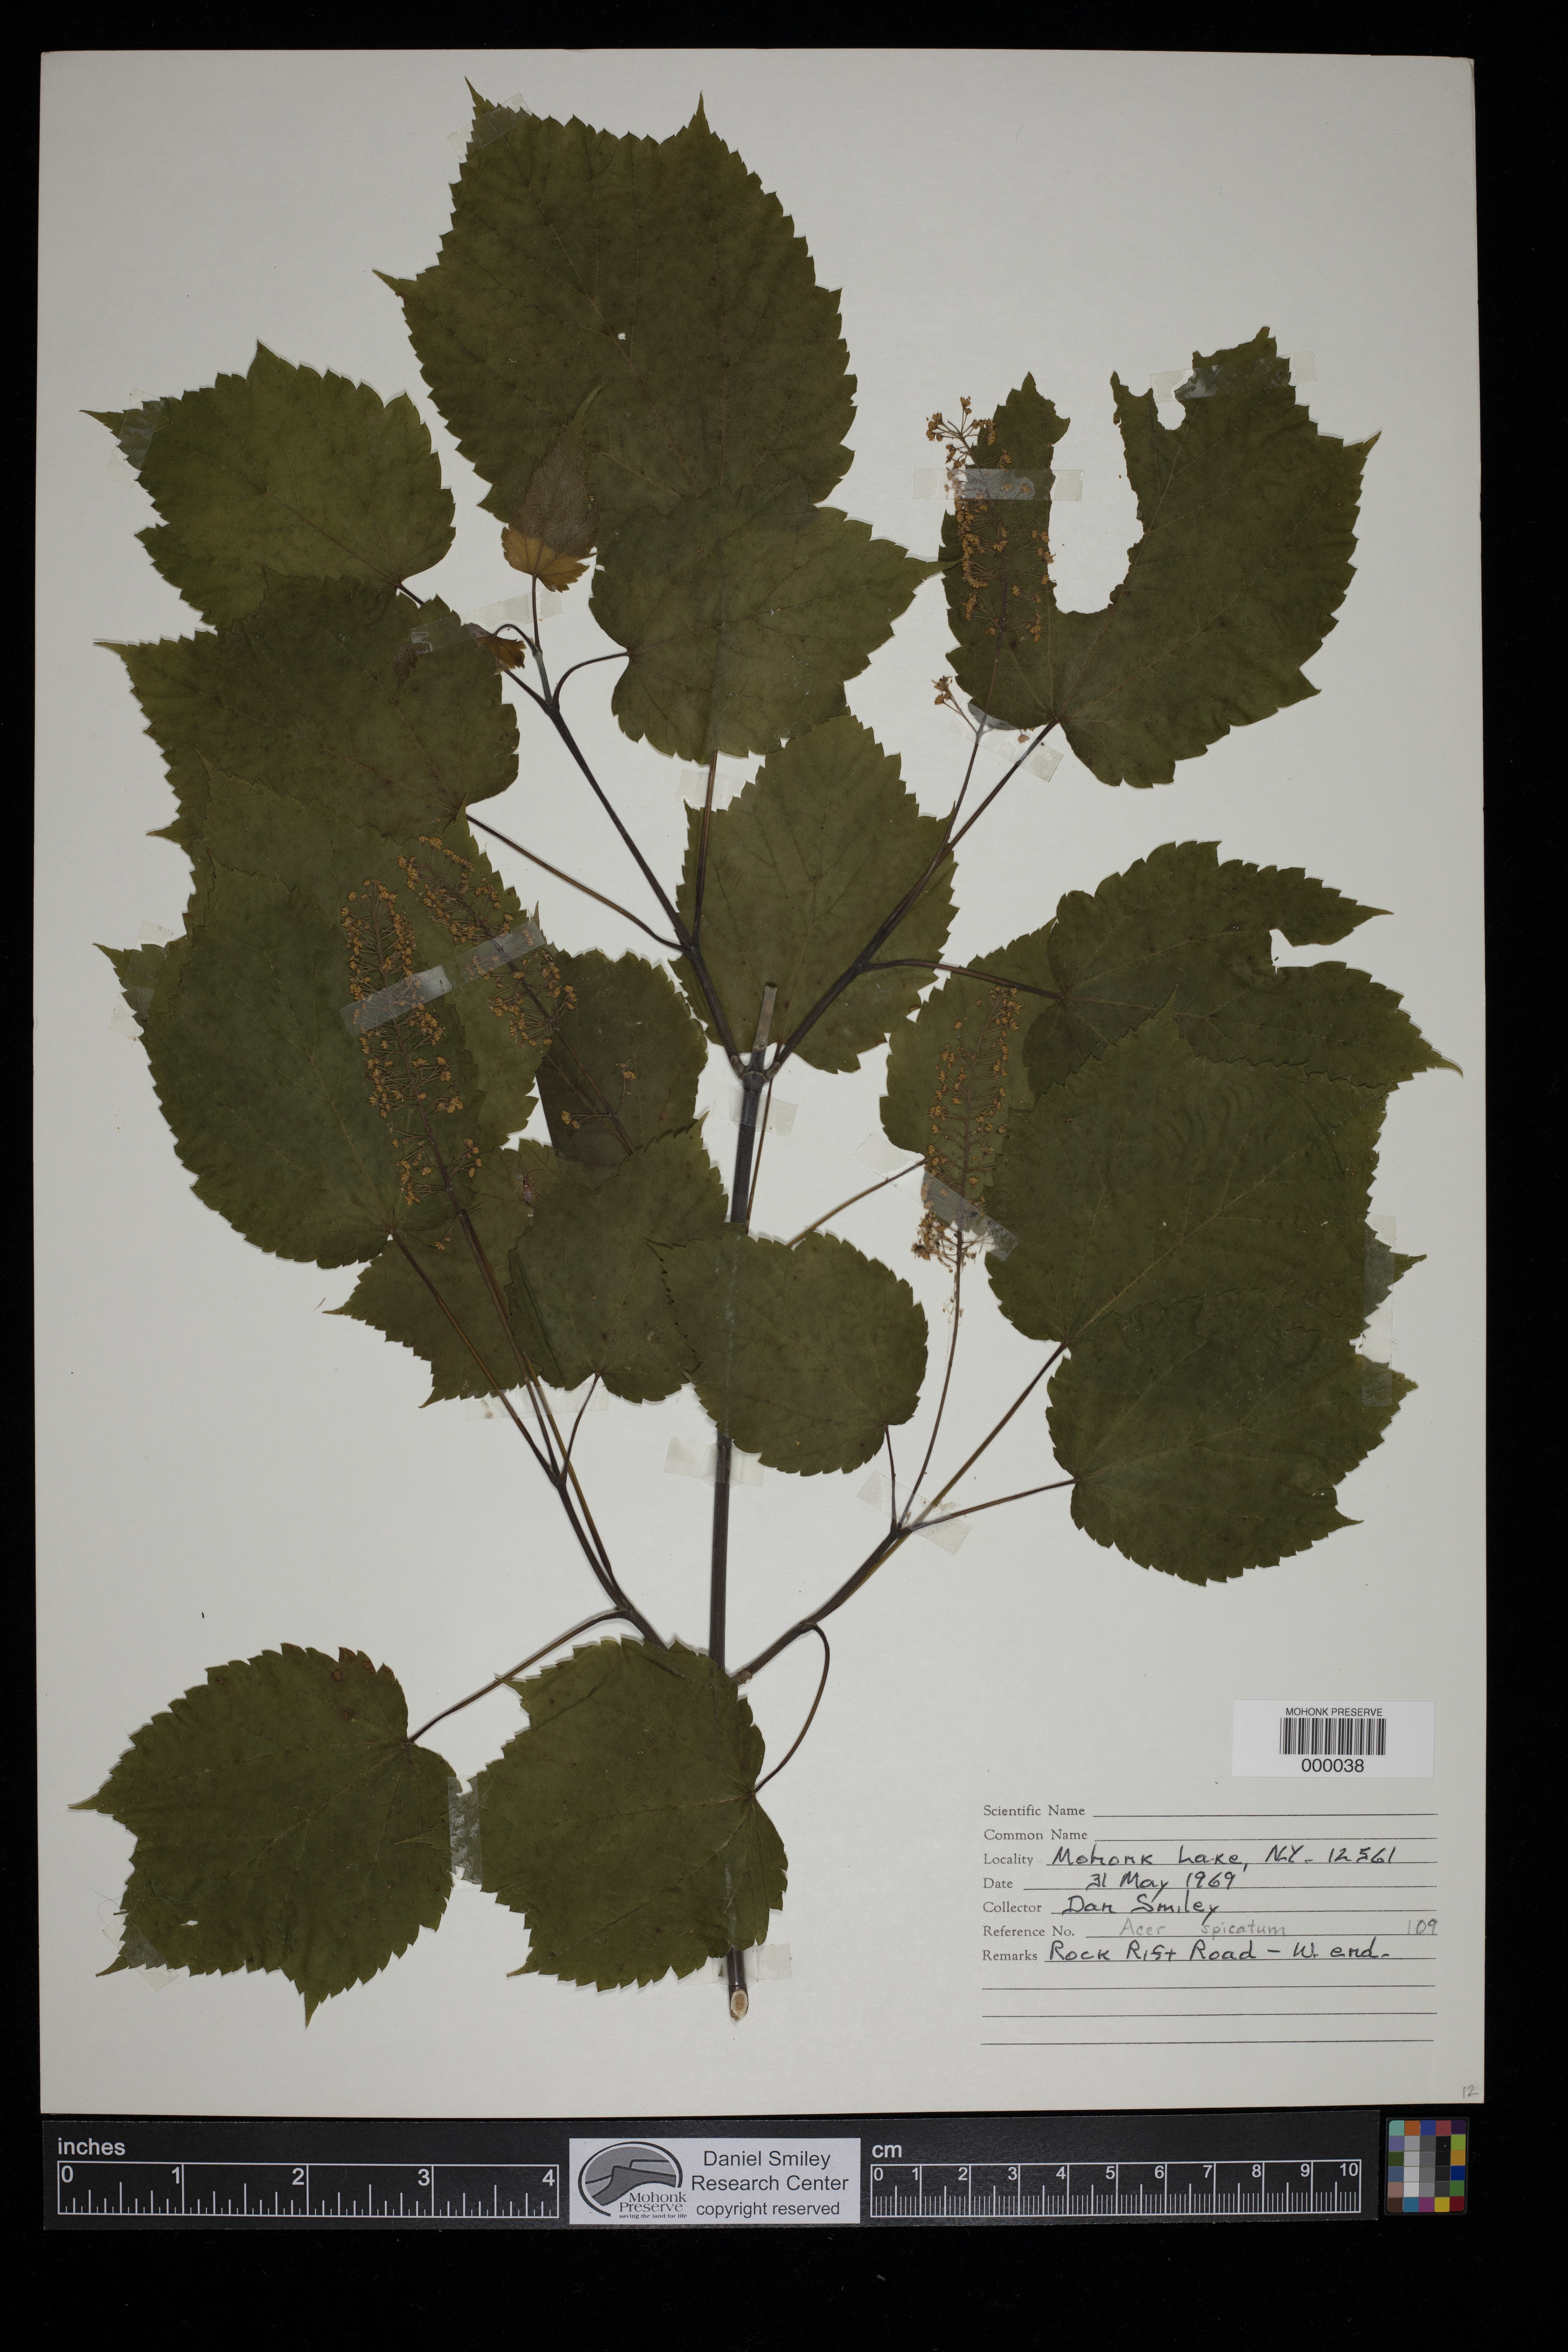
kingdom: Plantae
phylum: Tracheophyta
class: Magnoliopsida
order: Sapindales
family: Sapindaceae
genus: Acer
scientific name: Acer spicatum
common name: Mountain maple
